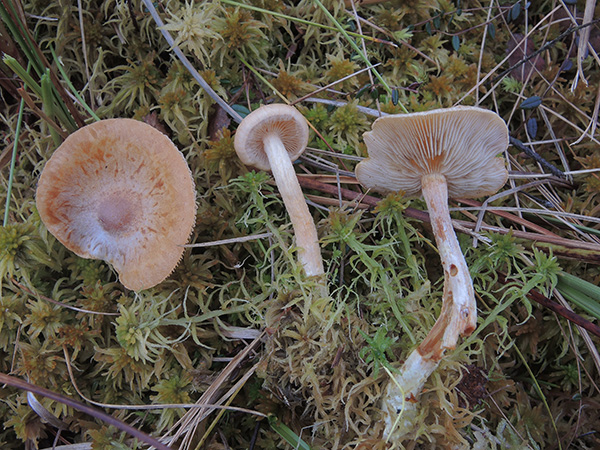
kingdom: Fungi
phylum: Basidiomycota
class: Agaricomycetes
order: Agaricales
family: Strophariaceae
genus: Pholiota
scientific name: Pholiota henningsii
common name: tørve-skælhat
